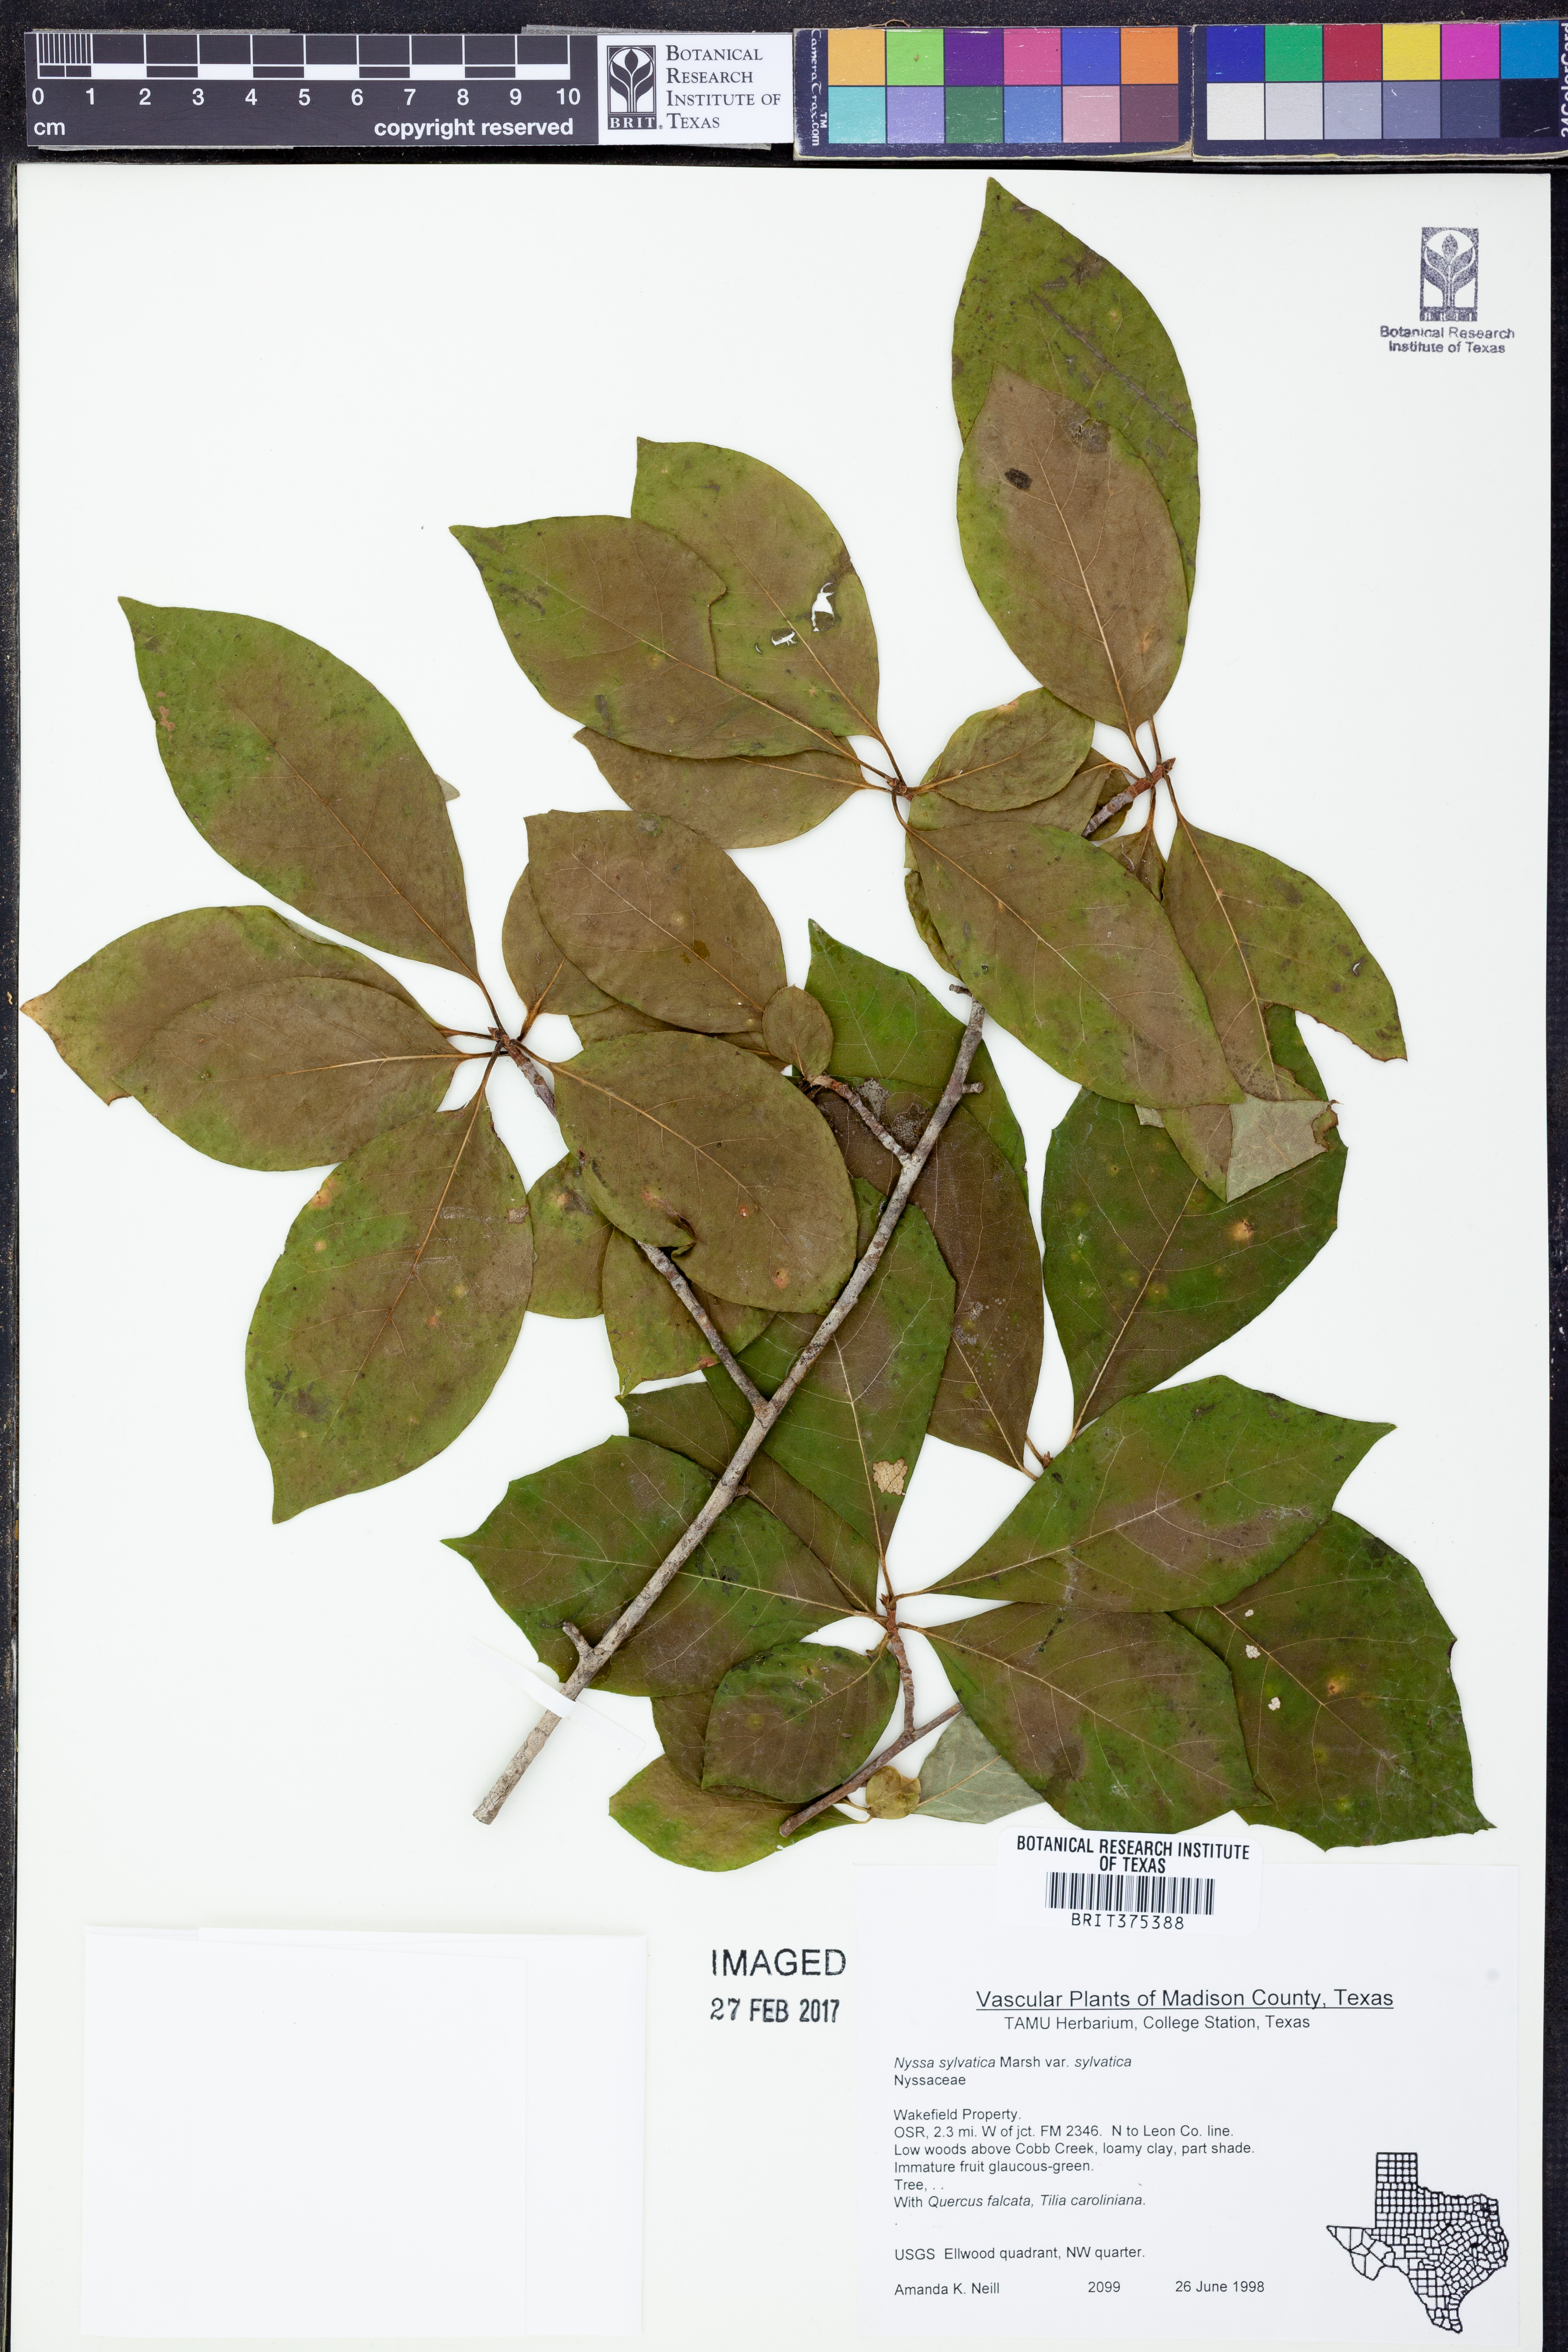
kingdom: Plantae
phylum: Tracheophyta
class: Magnoliopsida
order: Cornales
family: Nyssaceae
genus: Nyssa
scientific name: Nyssa sylvatica
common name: Black tupelo
